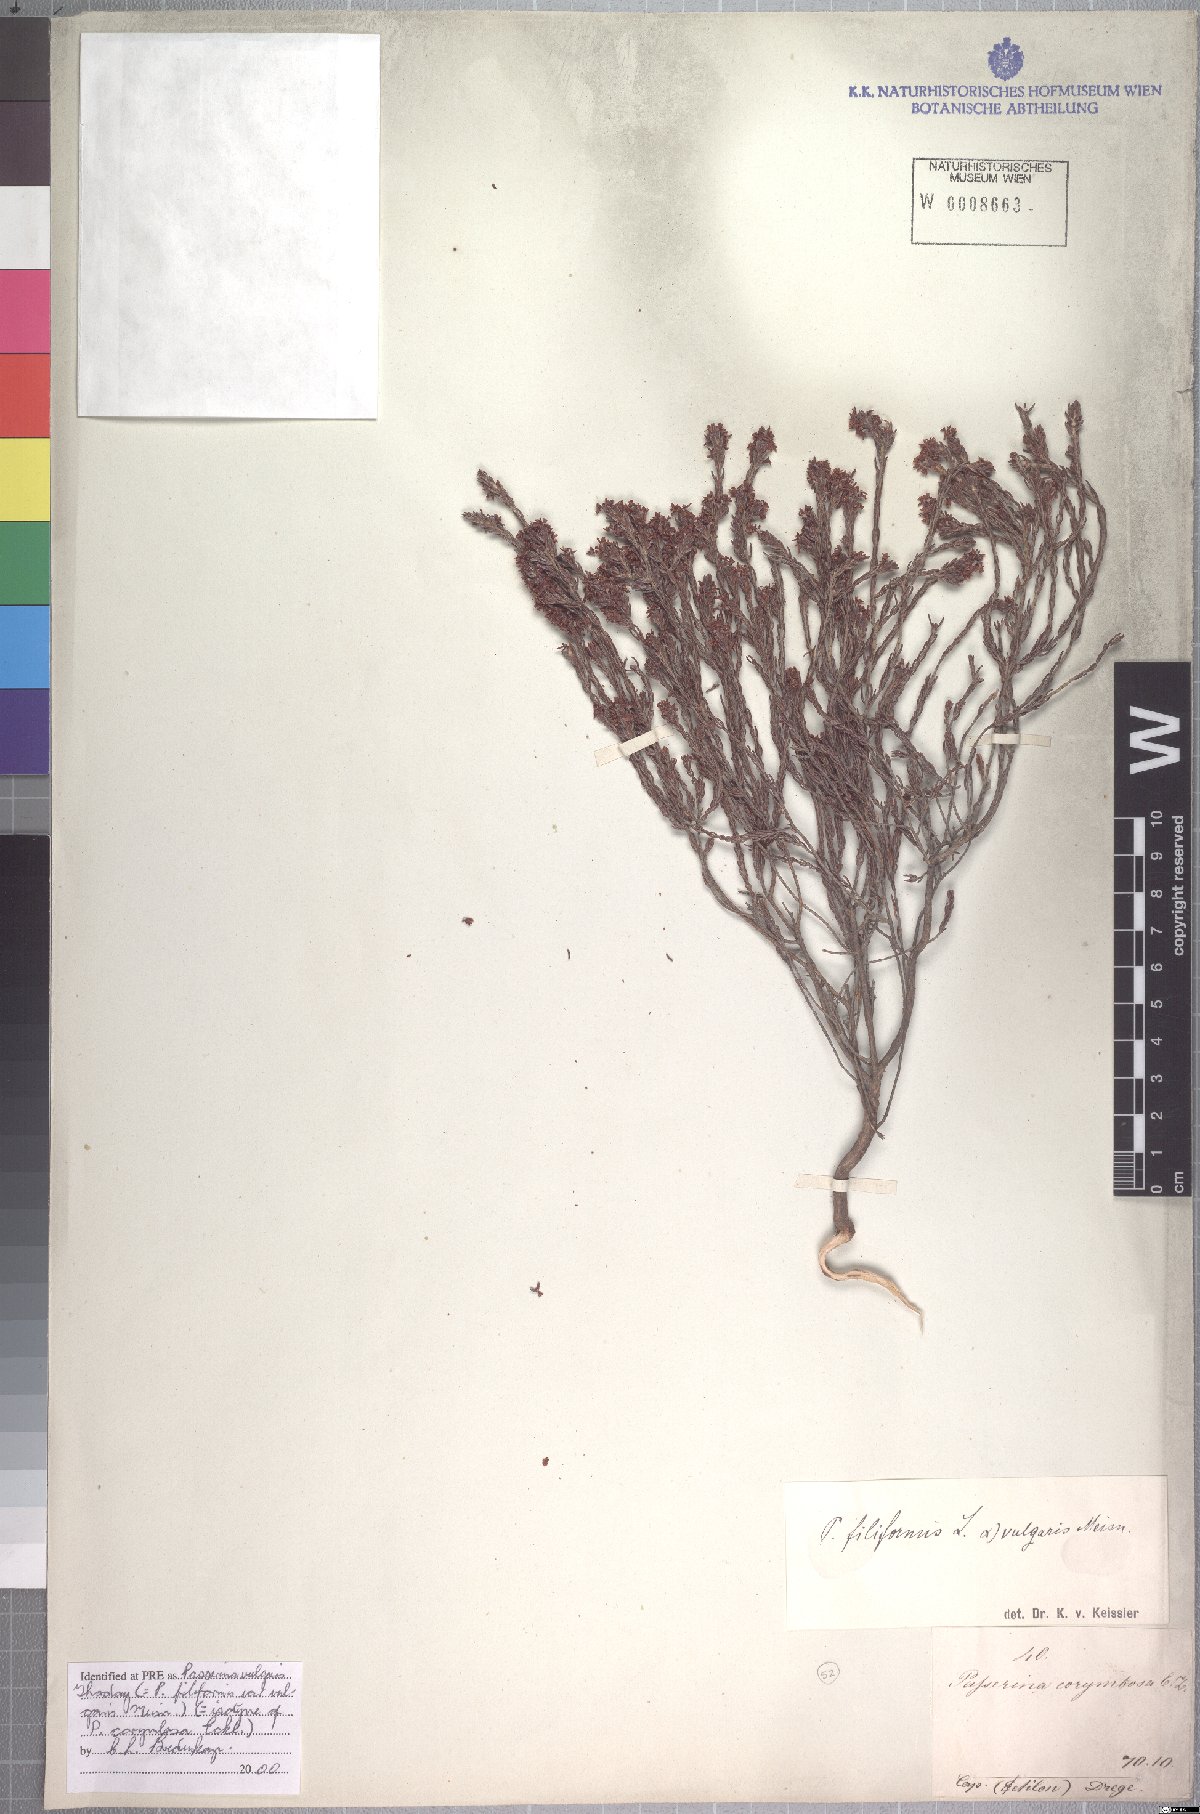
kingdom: Plantae
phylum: Tracheophyta
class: Magnoliopsida
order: Malvales
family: Thymelaeaceae
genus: Passerina
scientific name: Passerina corymbosa
